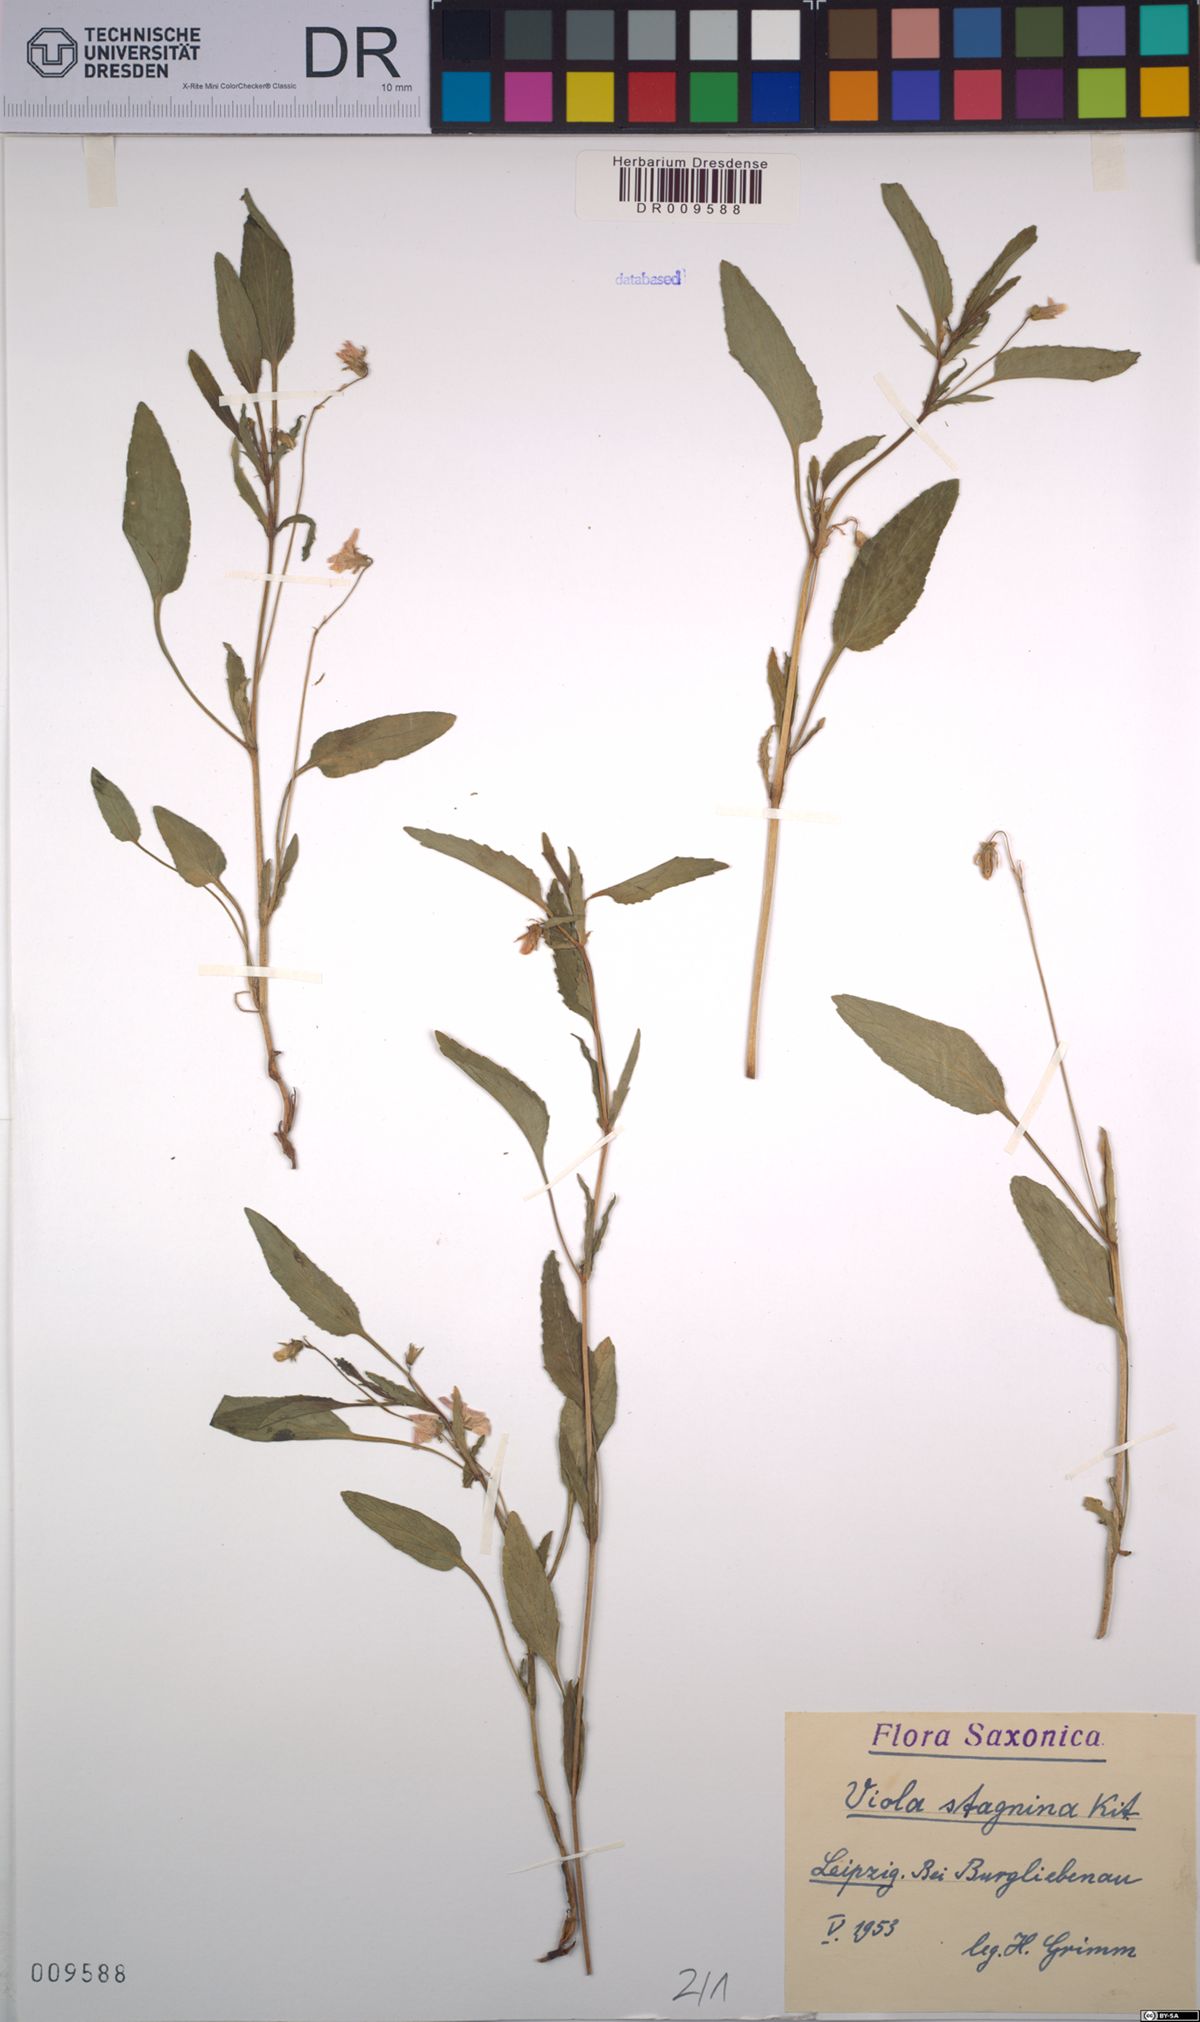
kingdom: Plantae
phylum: Tracheophyta
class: Magnoliopsida
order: Malpighiales
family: Violaceae
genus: Viola
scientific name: Viola stagnina
